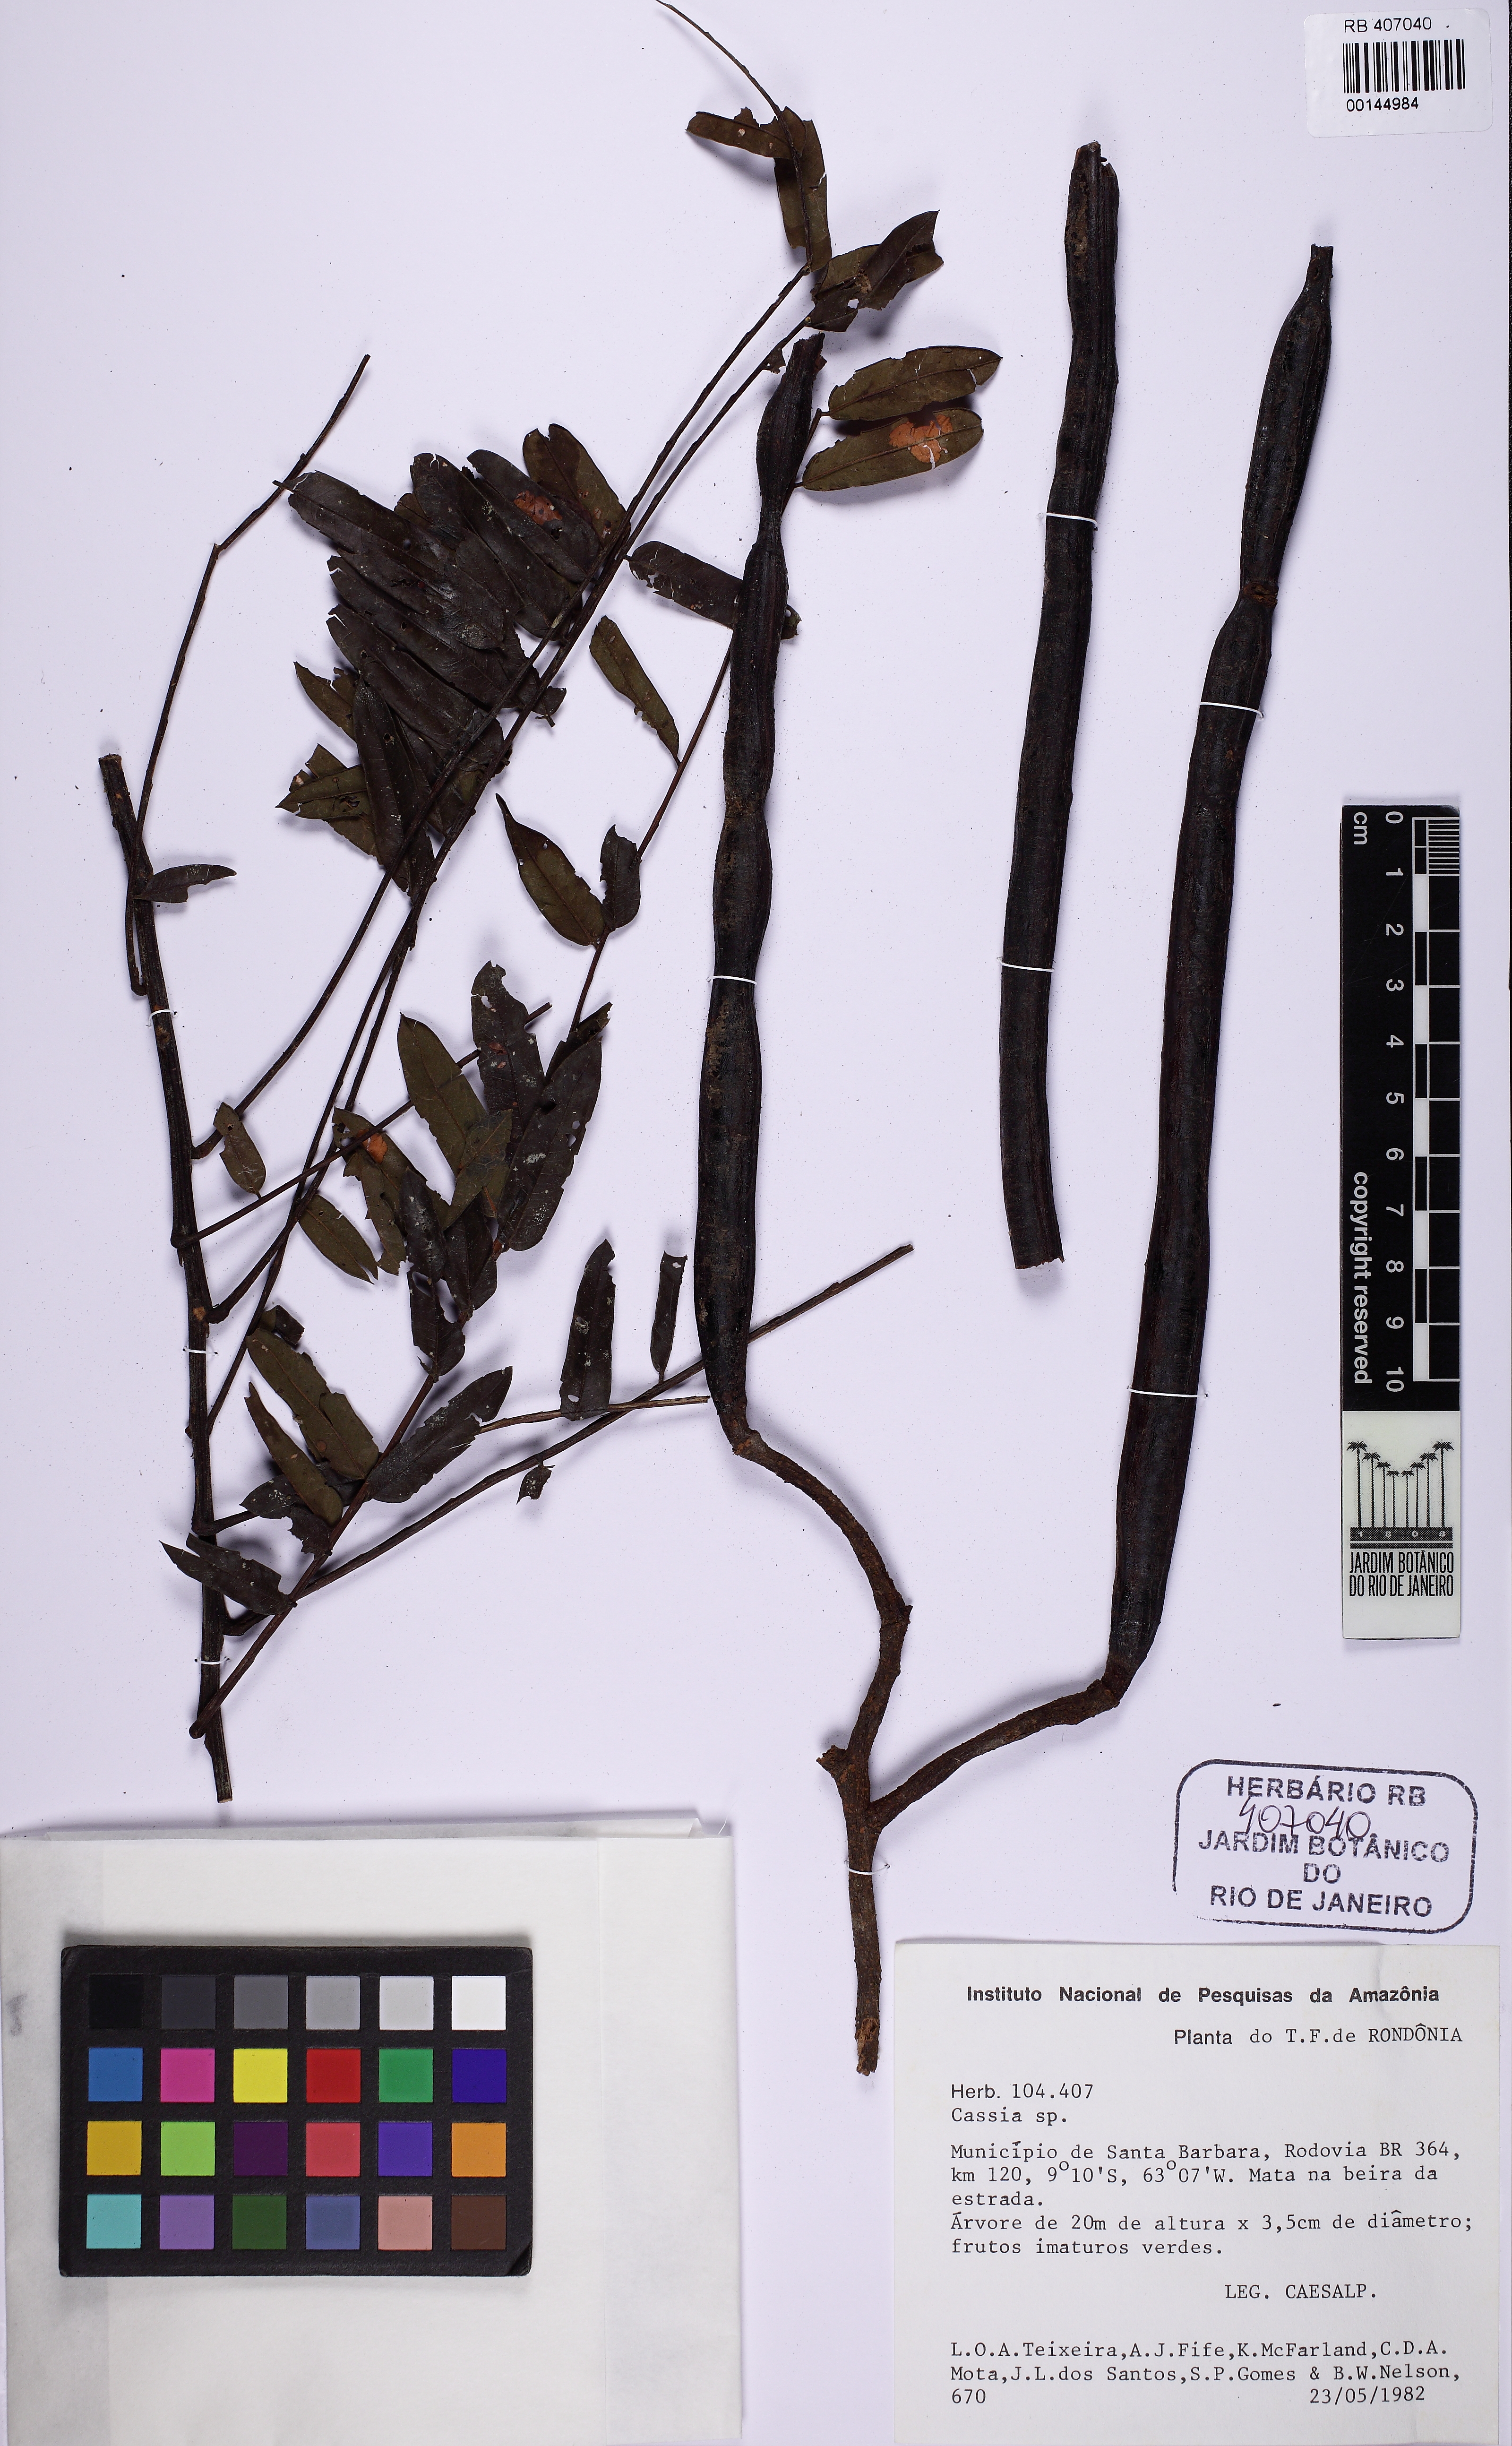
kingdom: Plantae
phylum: Tracheophyta
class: Magnoliopsida
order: Fabales
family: Fabaceae
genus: Cassia
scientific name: Cassia
